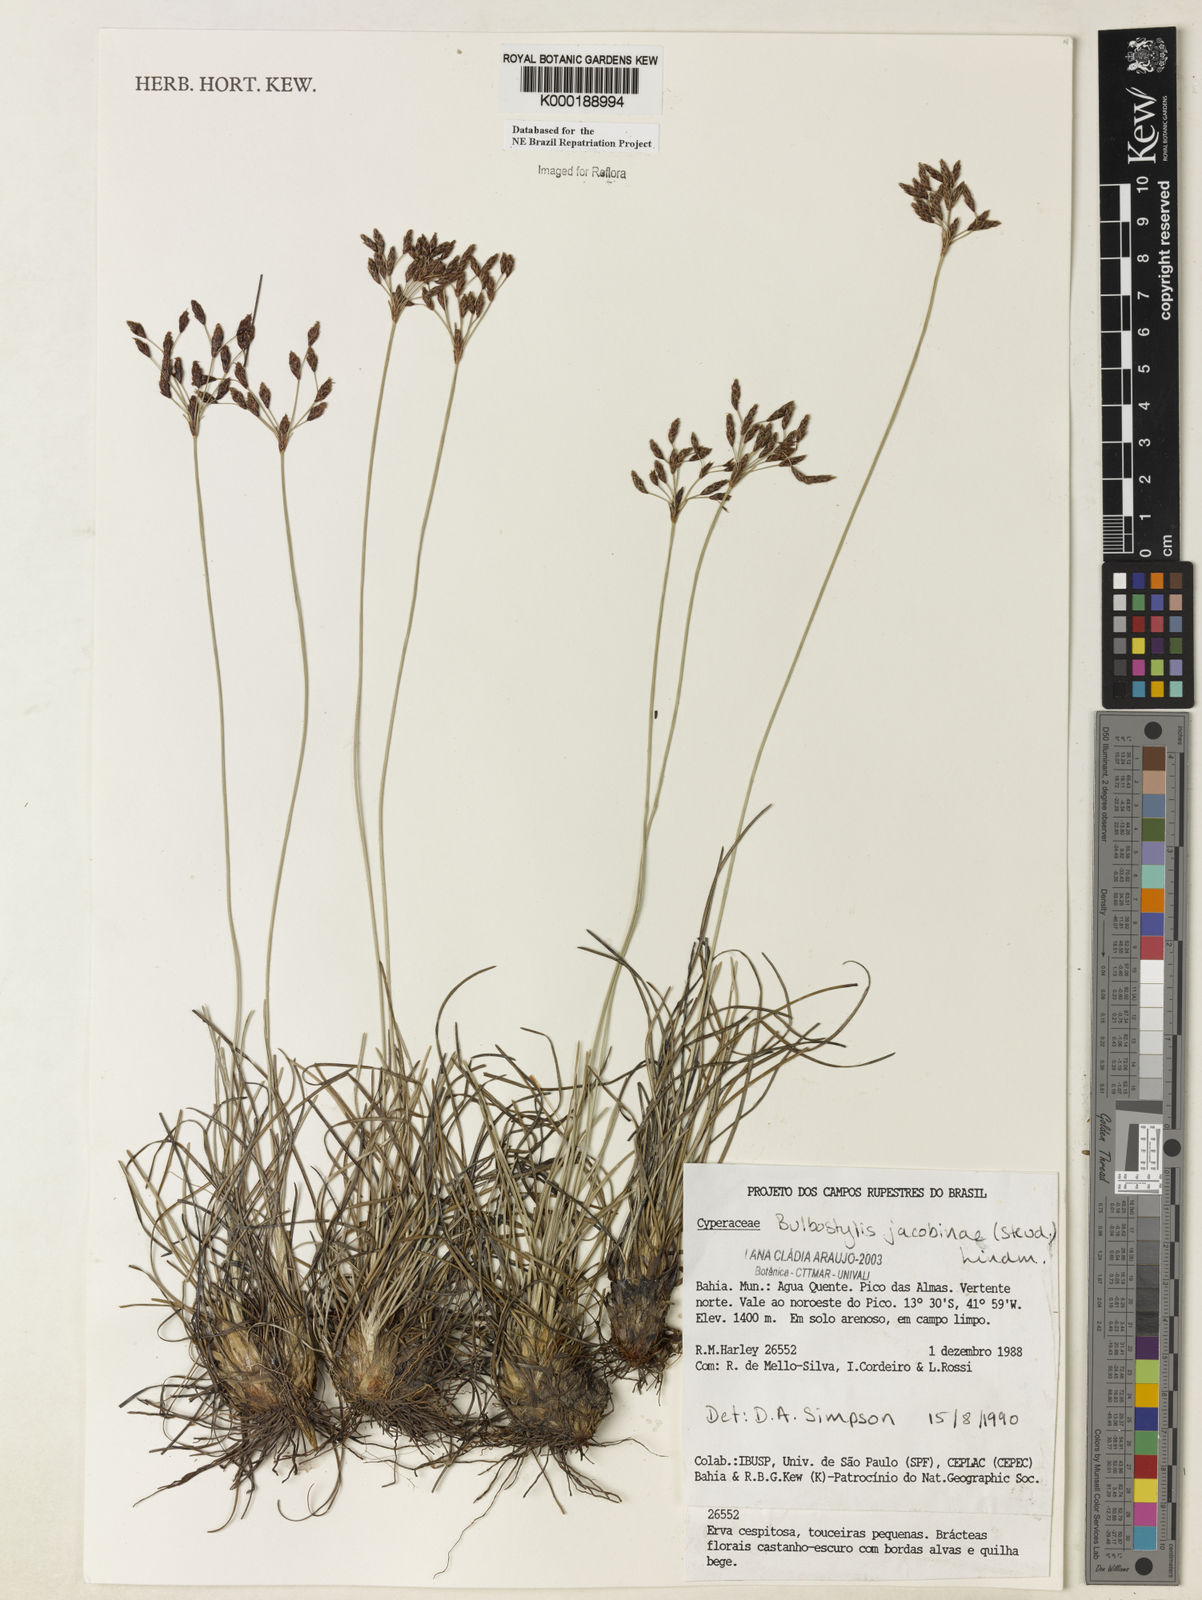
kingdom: Plantae
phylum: Tracheophyta
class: Liliopsida
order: Poales
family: Cyperaceae
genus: Bulbostylis
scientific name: Bulbostylis jacobinae
